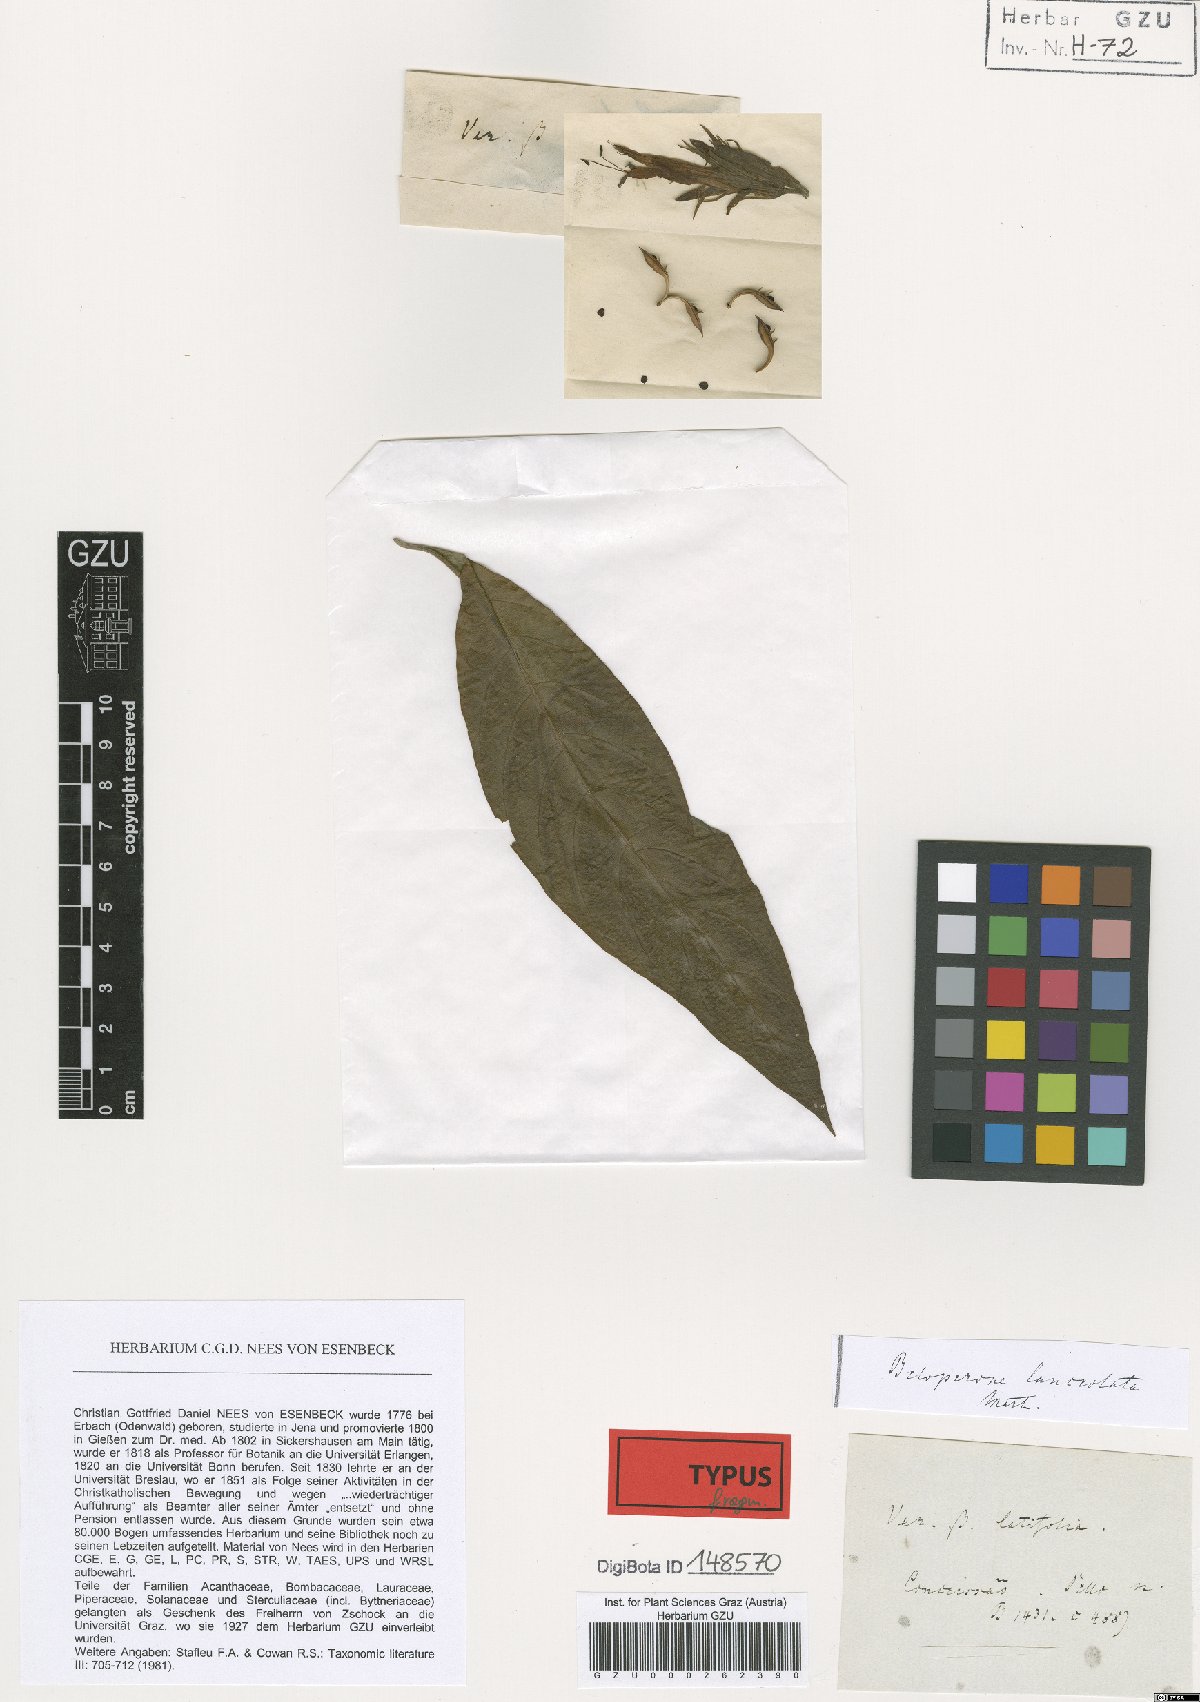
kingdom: Plantae
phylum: Tracheophyta
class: Magnoliopsida
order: Lamiales
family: Acanthaceae
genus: Justicia
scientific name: Justicia minensis
